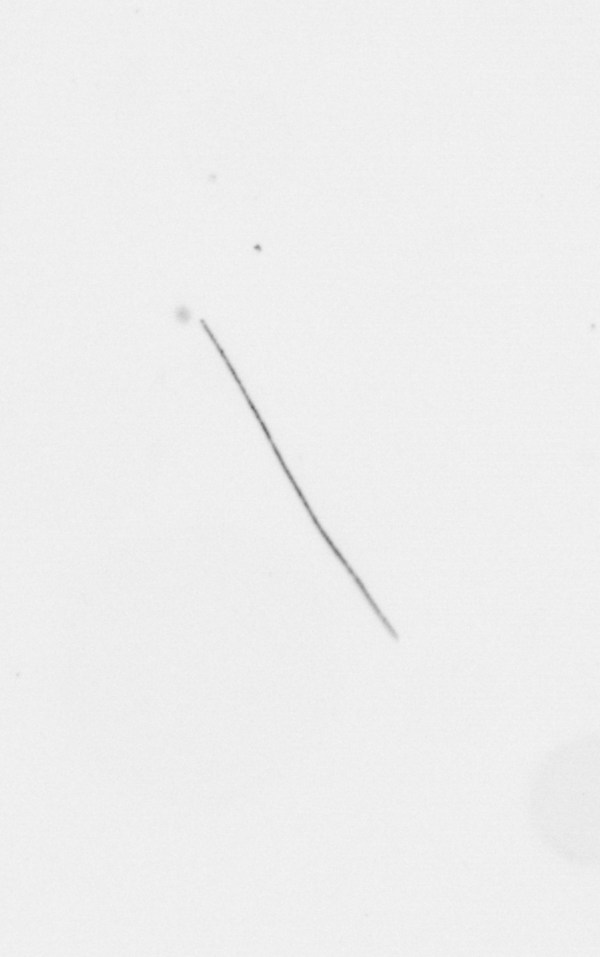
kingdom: Chromista
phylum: Ochrophyta
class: Bacillariophyceae
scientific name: Bacillariophyceae
